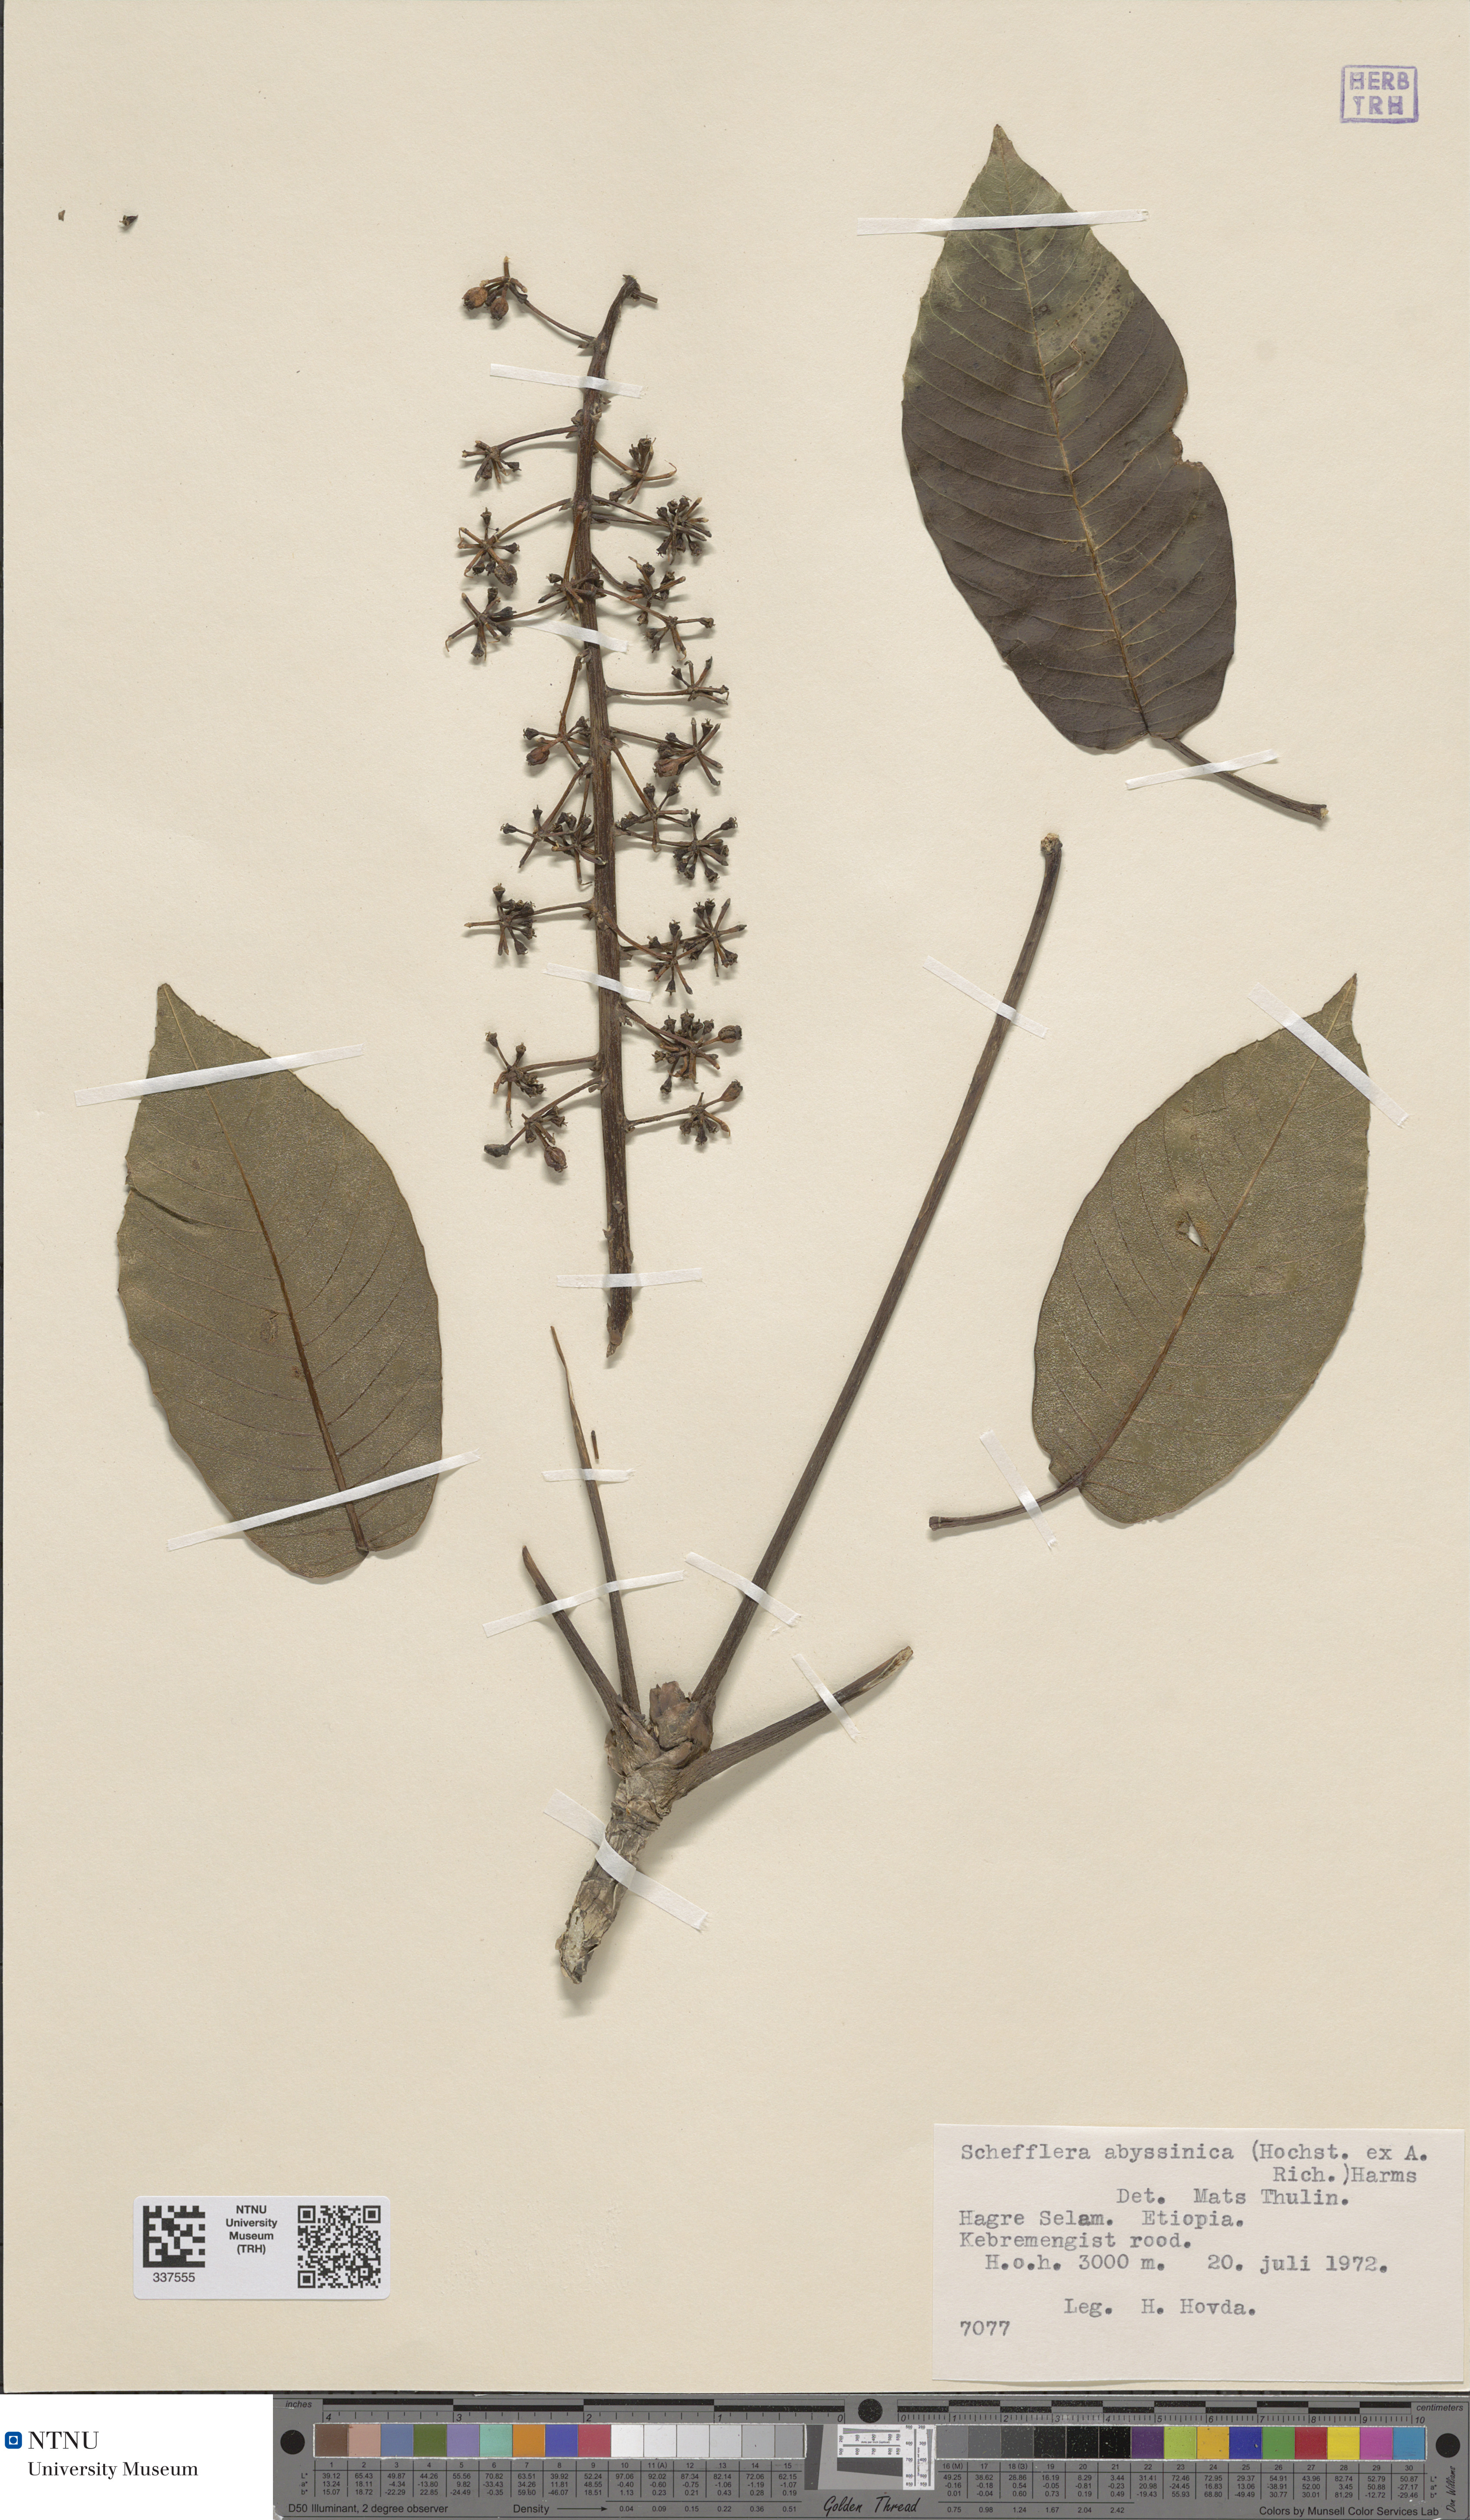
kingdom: Plantae
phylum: Tracheophyta
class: Magnoliopsida
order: Apiales
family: Araliaceae
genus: Astropanax
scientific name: Astropanax abyssinicum
